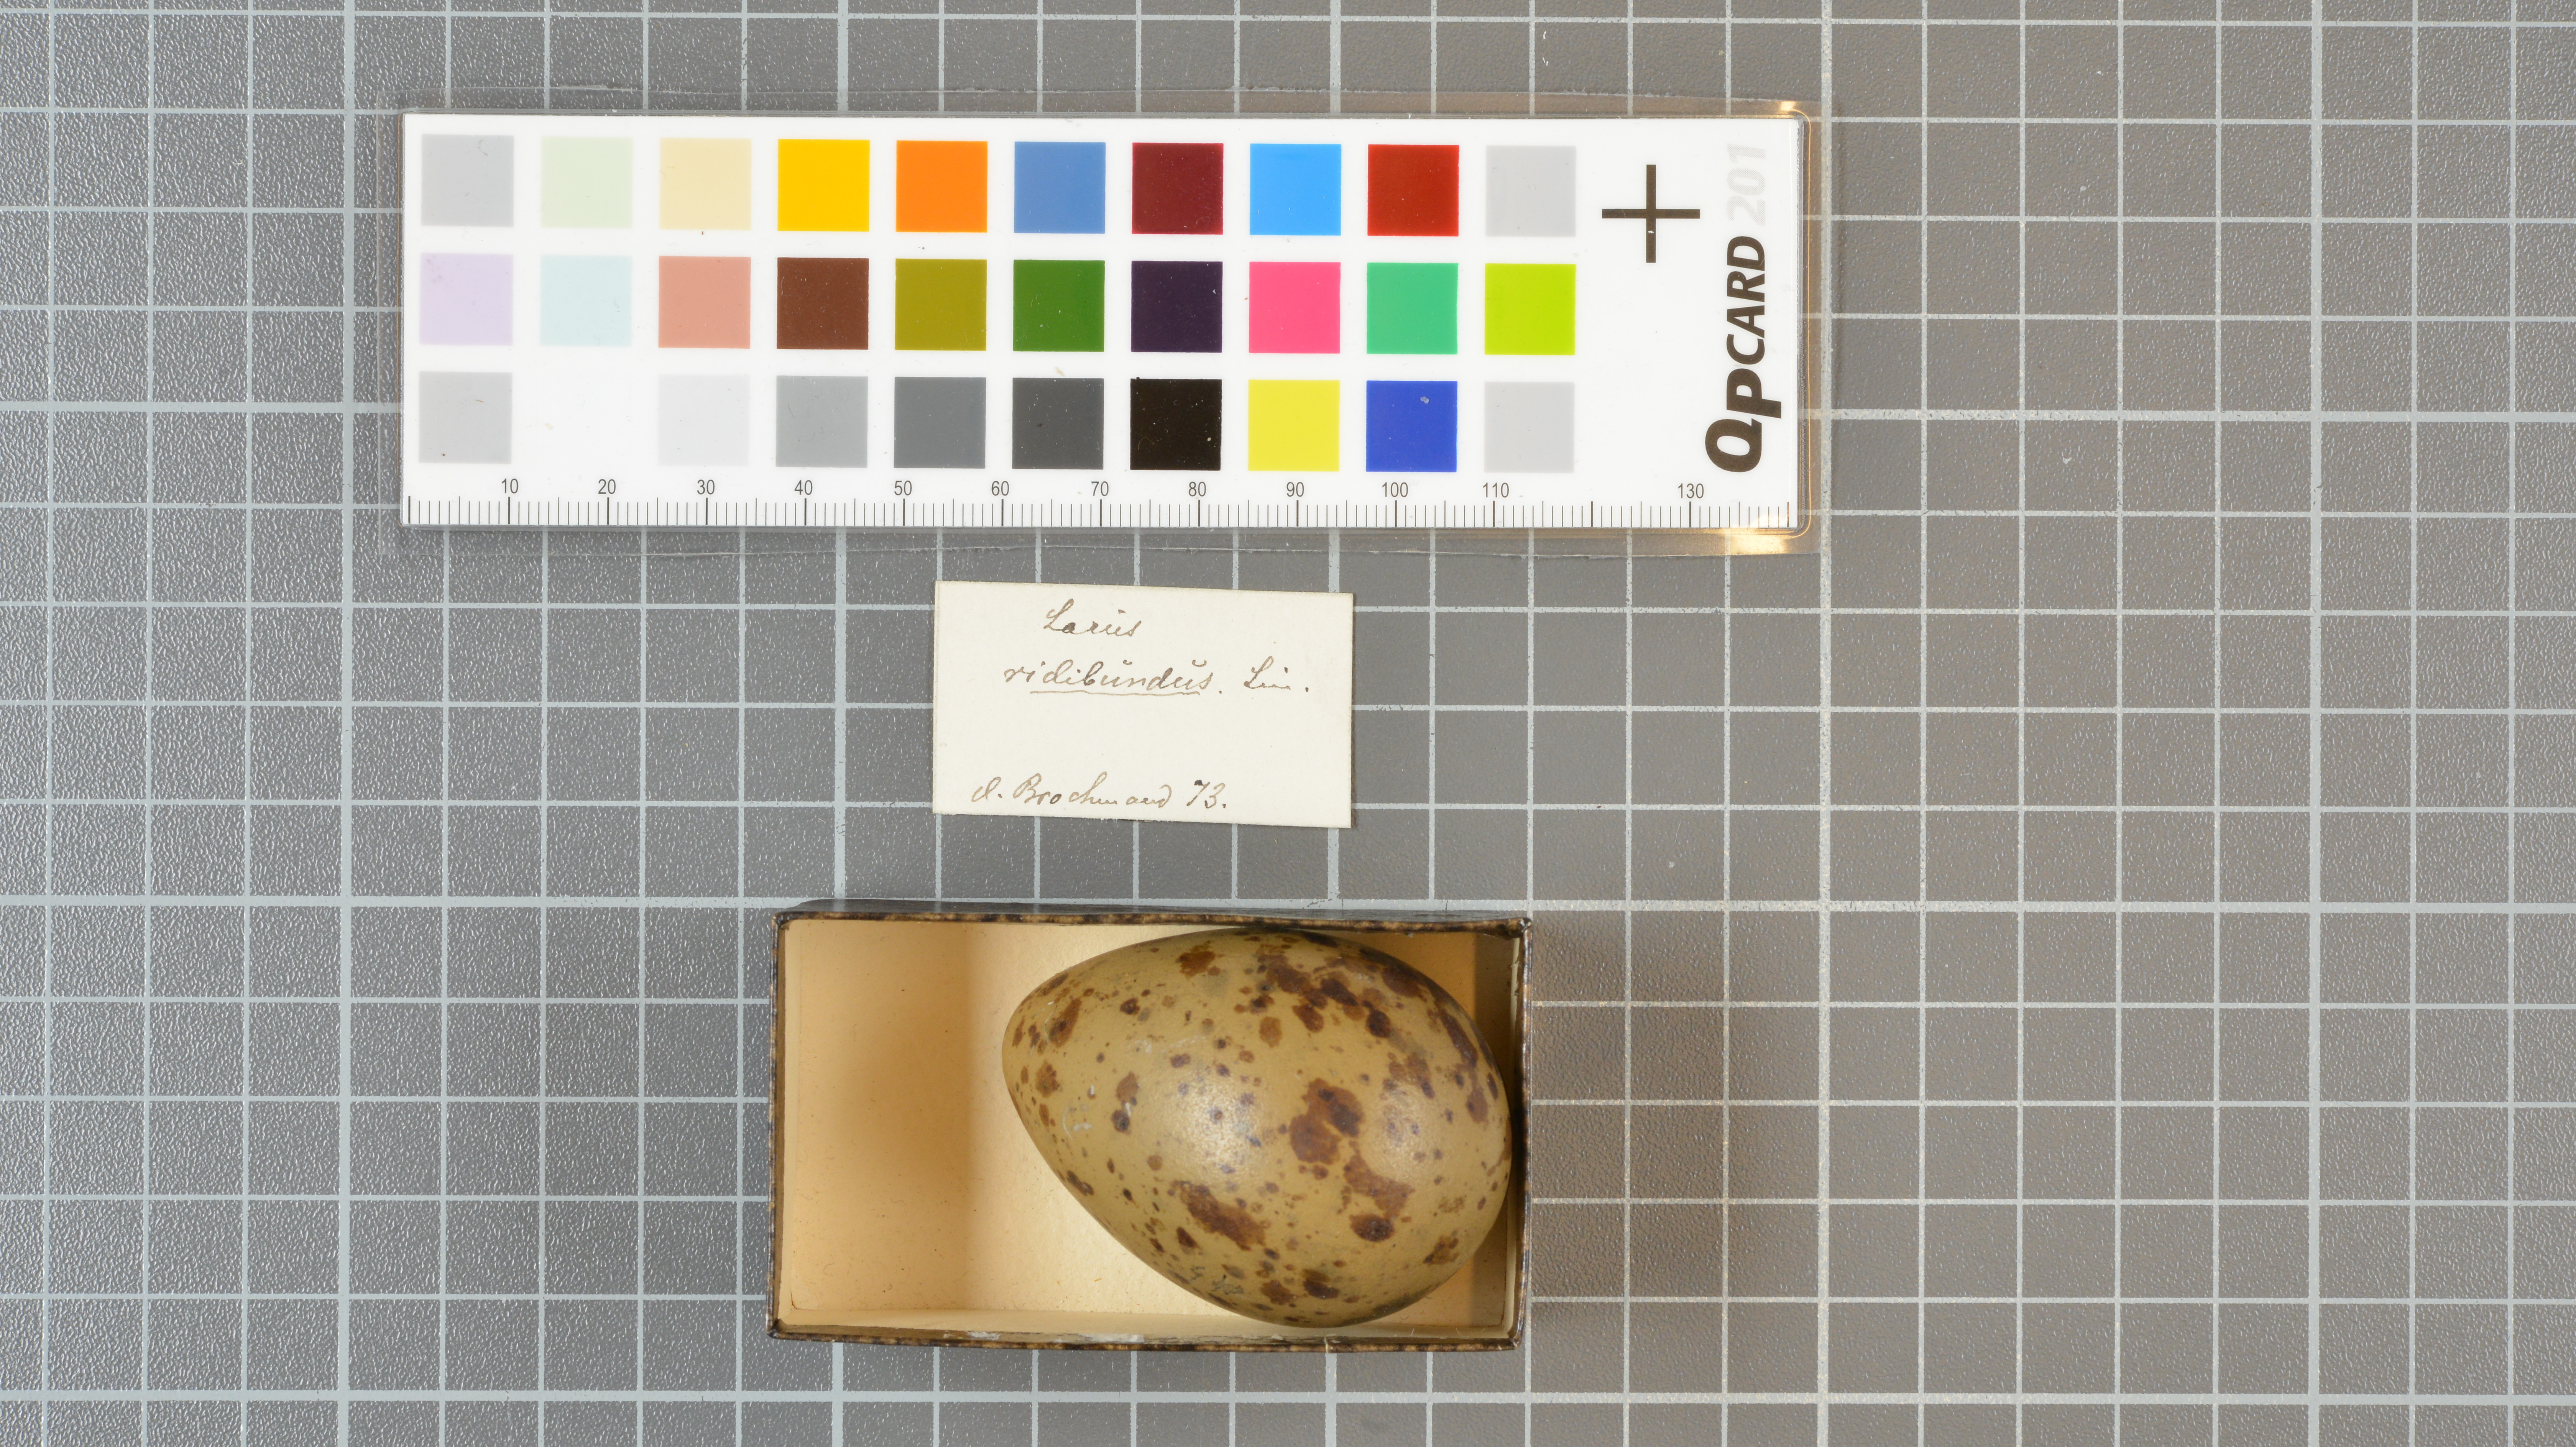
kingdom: Animalia
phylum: Chordata
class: Aves
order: Charadriiformes
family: Laridae
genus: Chroicocephalus
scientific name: Chroicocephalus ridibundus
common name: Black-headed gull
